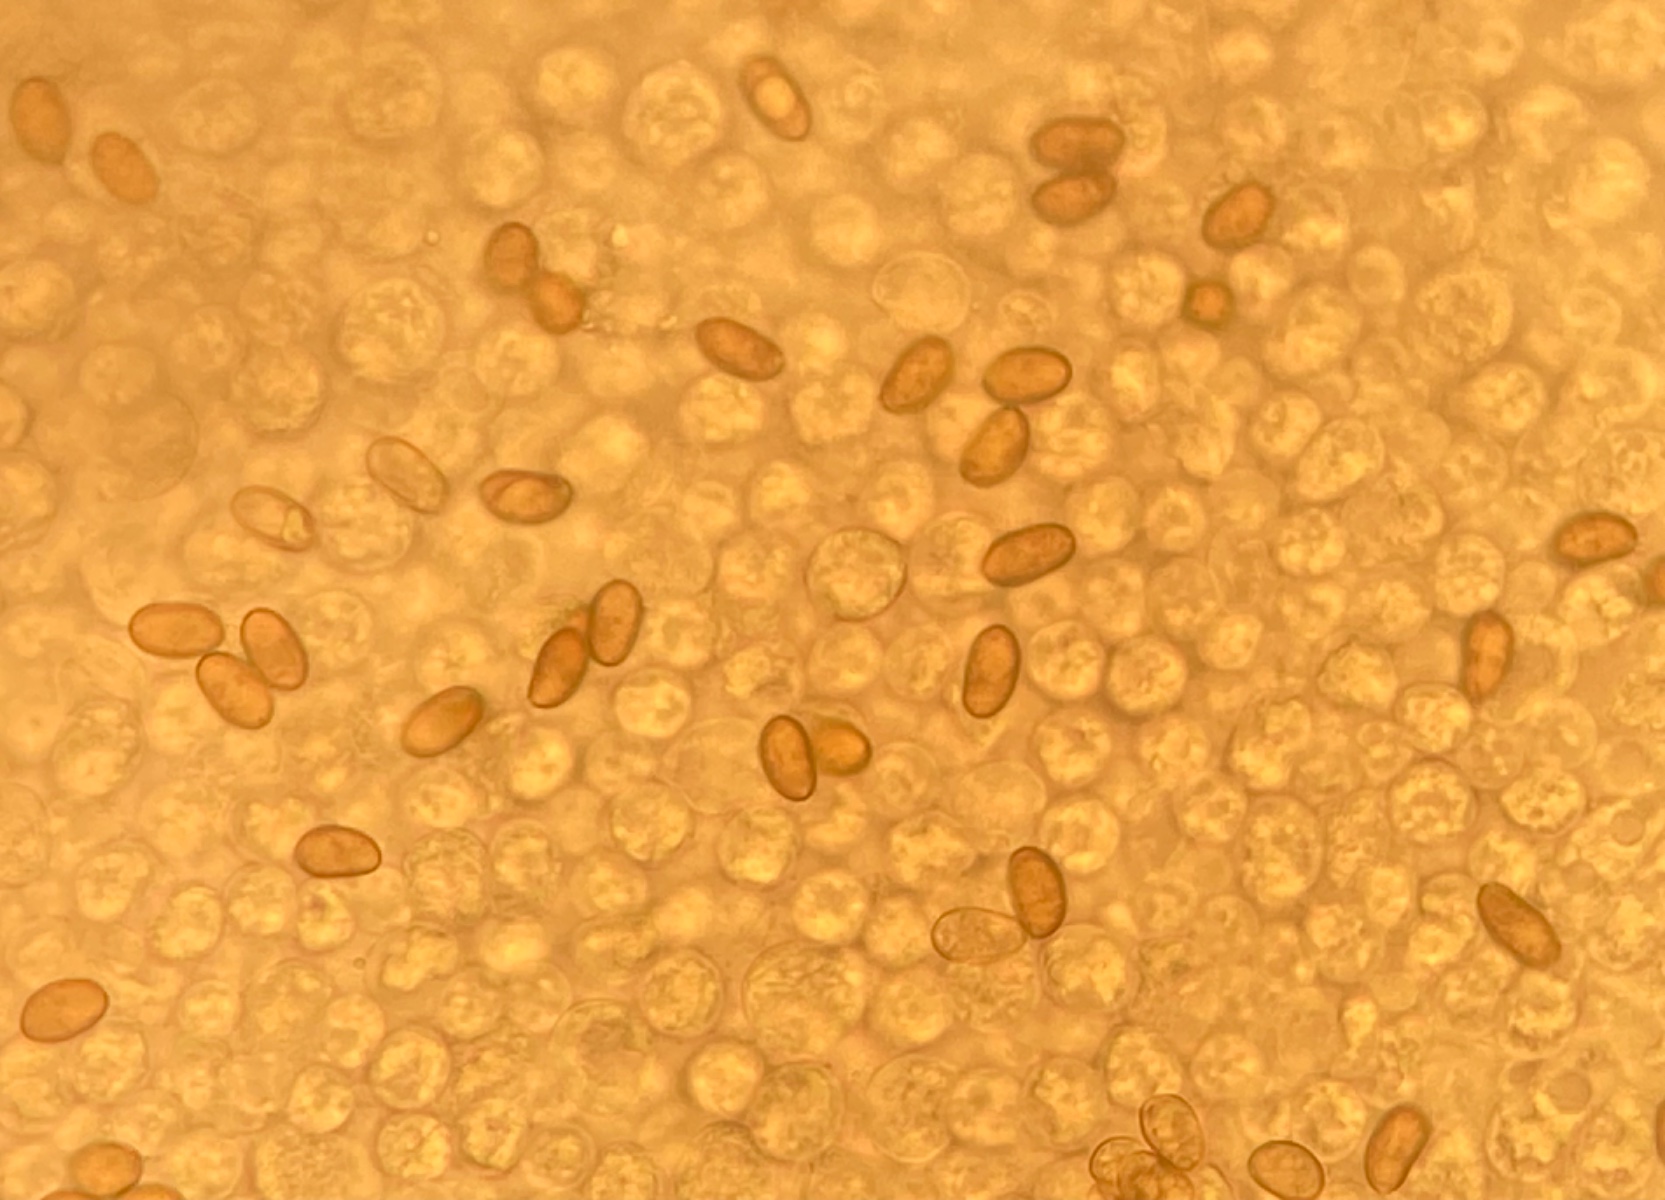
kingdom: Fungi
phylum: Basidiomycota
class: Agaricomycetes
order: Agaricales
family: Inocybaceae
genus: Pseudosperma
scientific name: Pseudosperma
